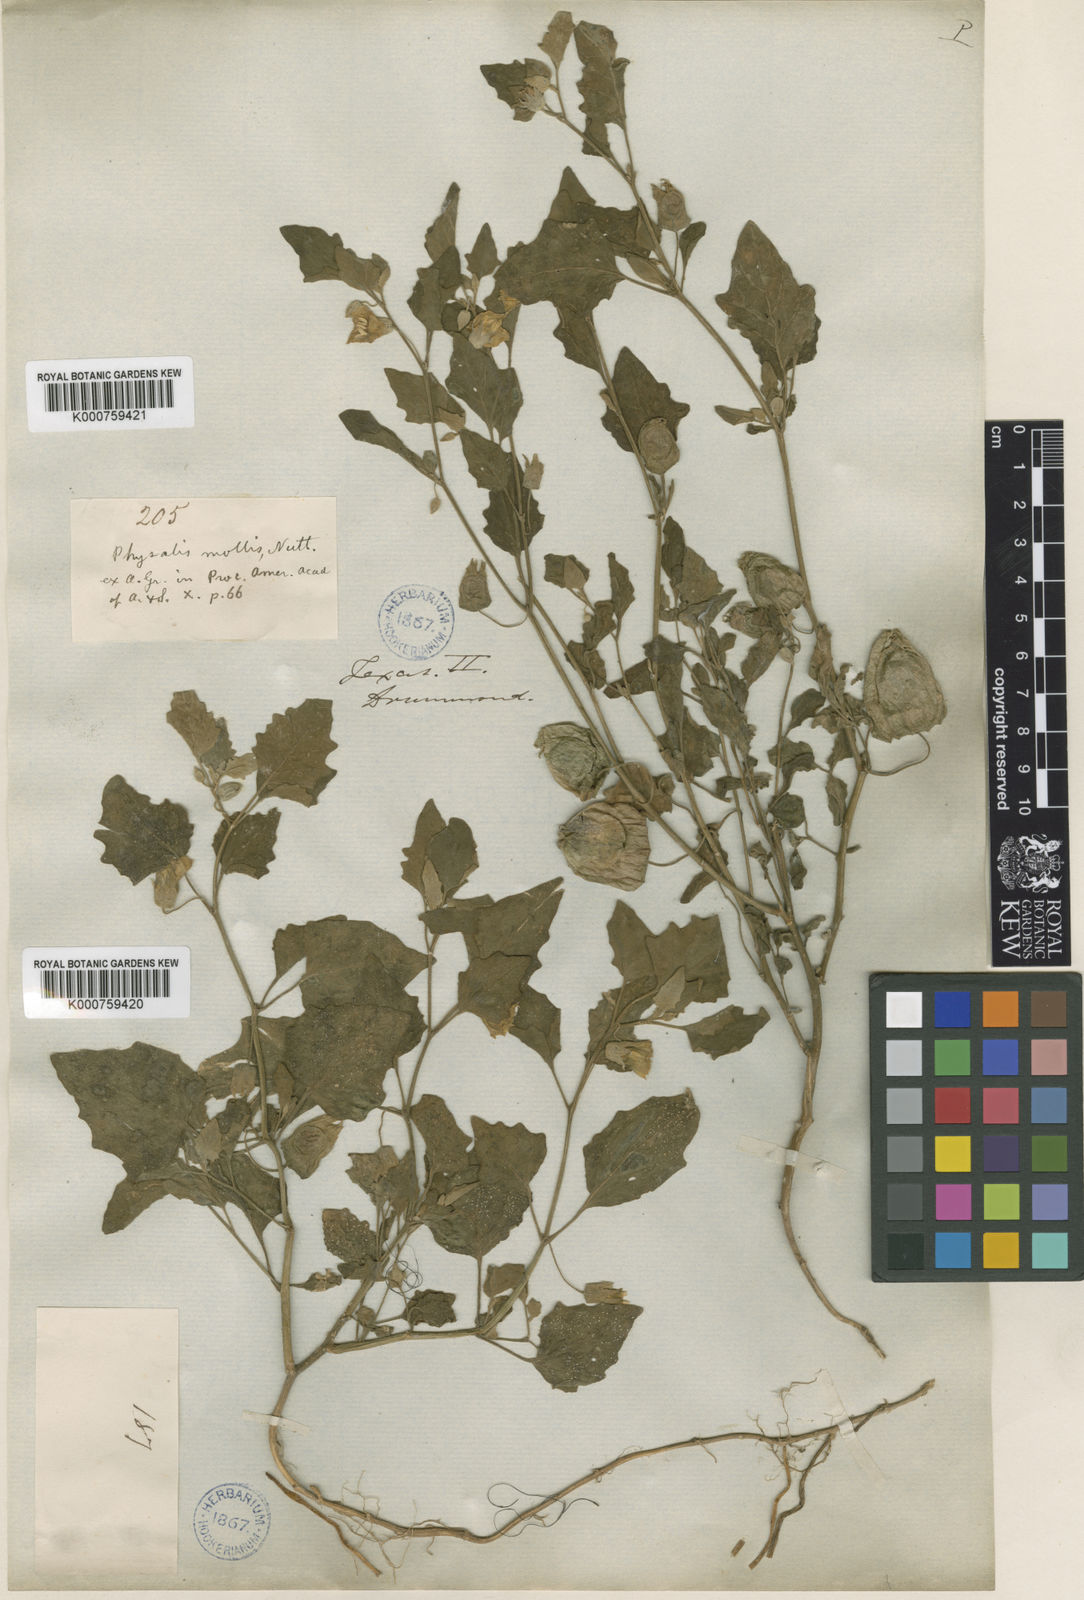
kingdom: Plantae
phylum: Tracheophyta
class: Magnoliopsida
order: Solanales
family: Solanaceae
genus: Physalis
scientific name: Physalis mollis
